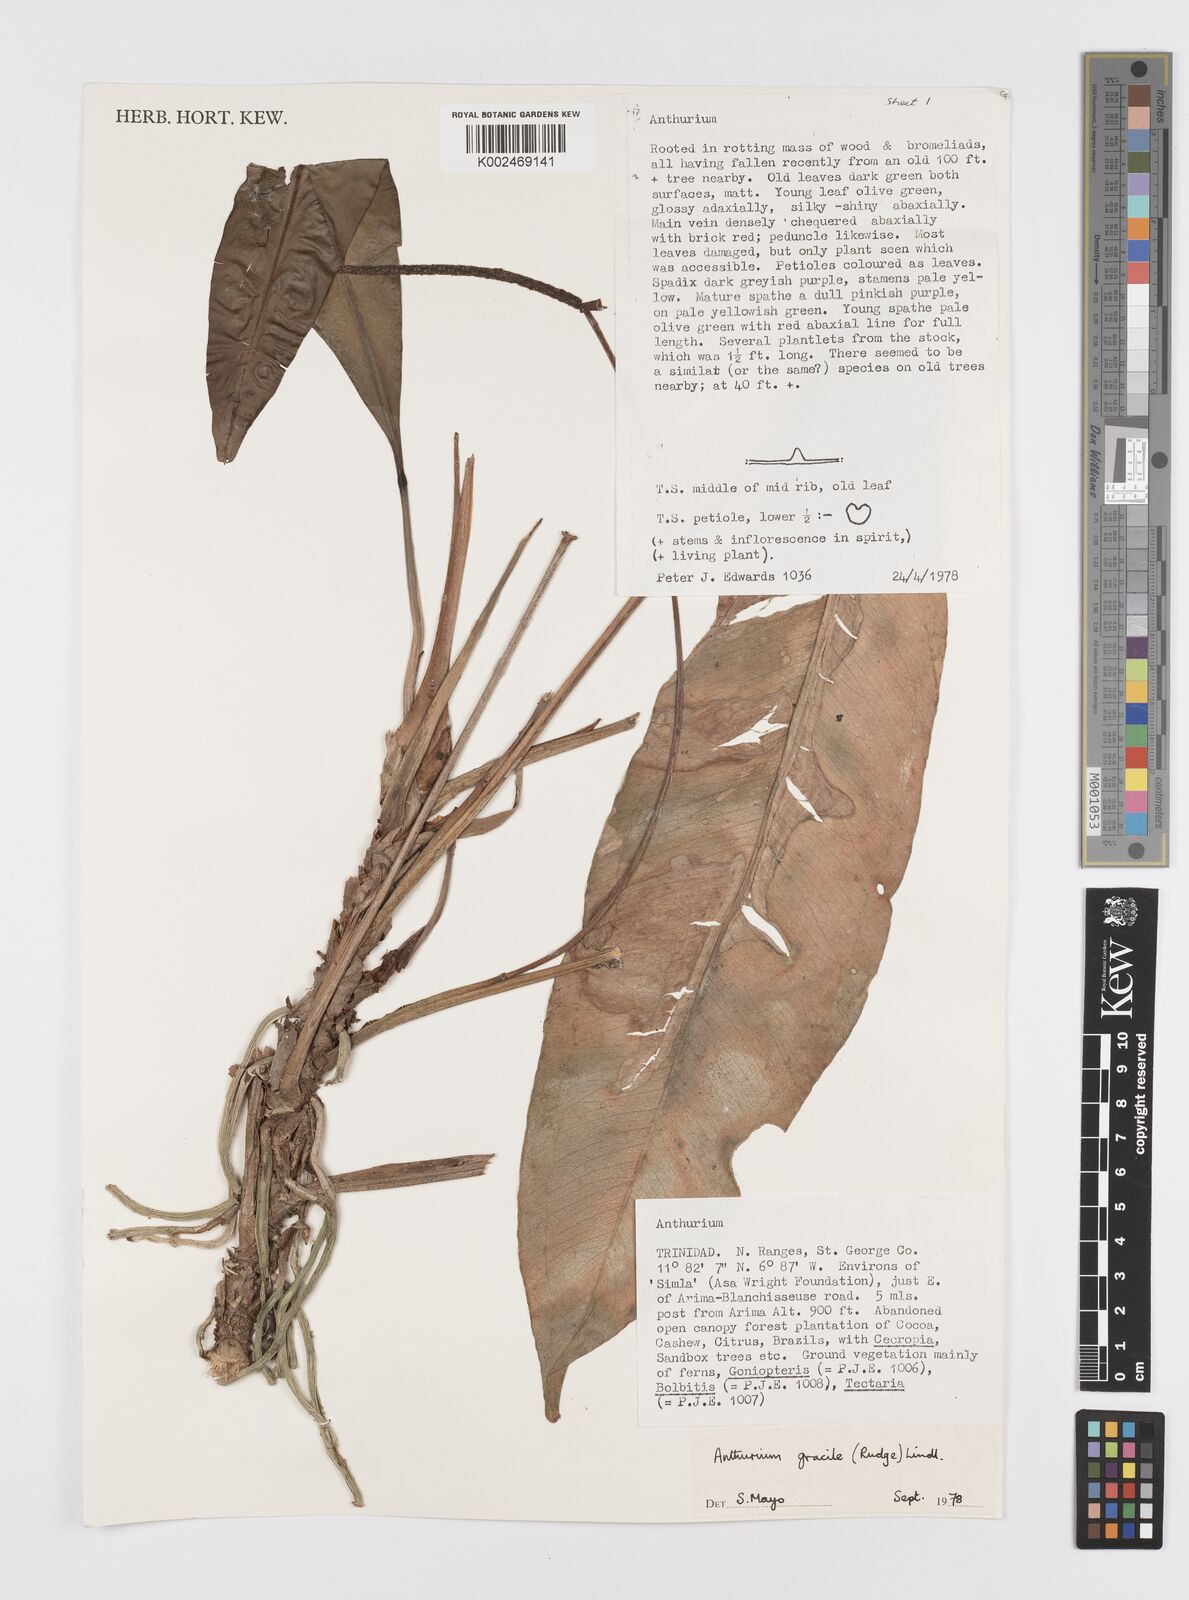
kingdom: Plantae
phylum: Tracheophyta
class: Liliopsida
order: Alismatales
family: Araceae
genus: Anthurium
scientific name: Anthurium gracile
